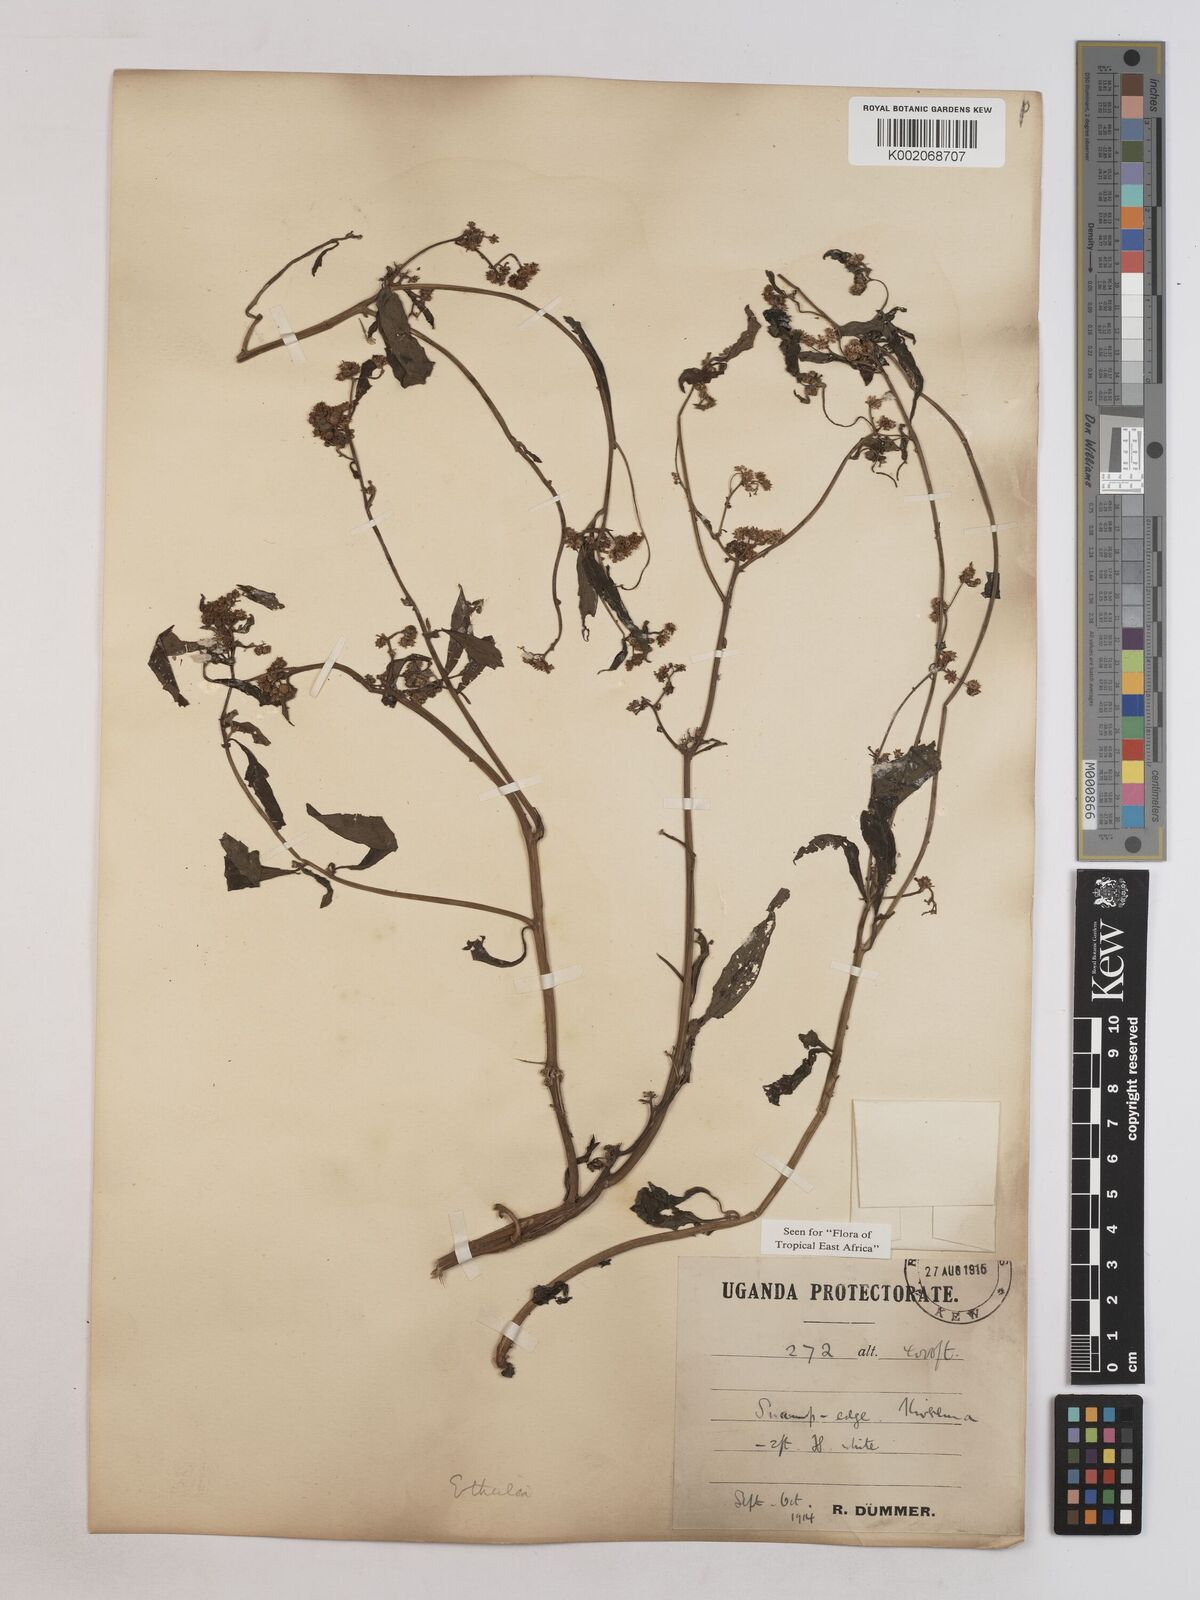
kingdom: Plantae
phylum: Tracheophyta
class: Magnoliopsida
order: Asterales
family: Asteraceae
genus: Ethulia
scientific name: Ethulia conyzoides
